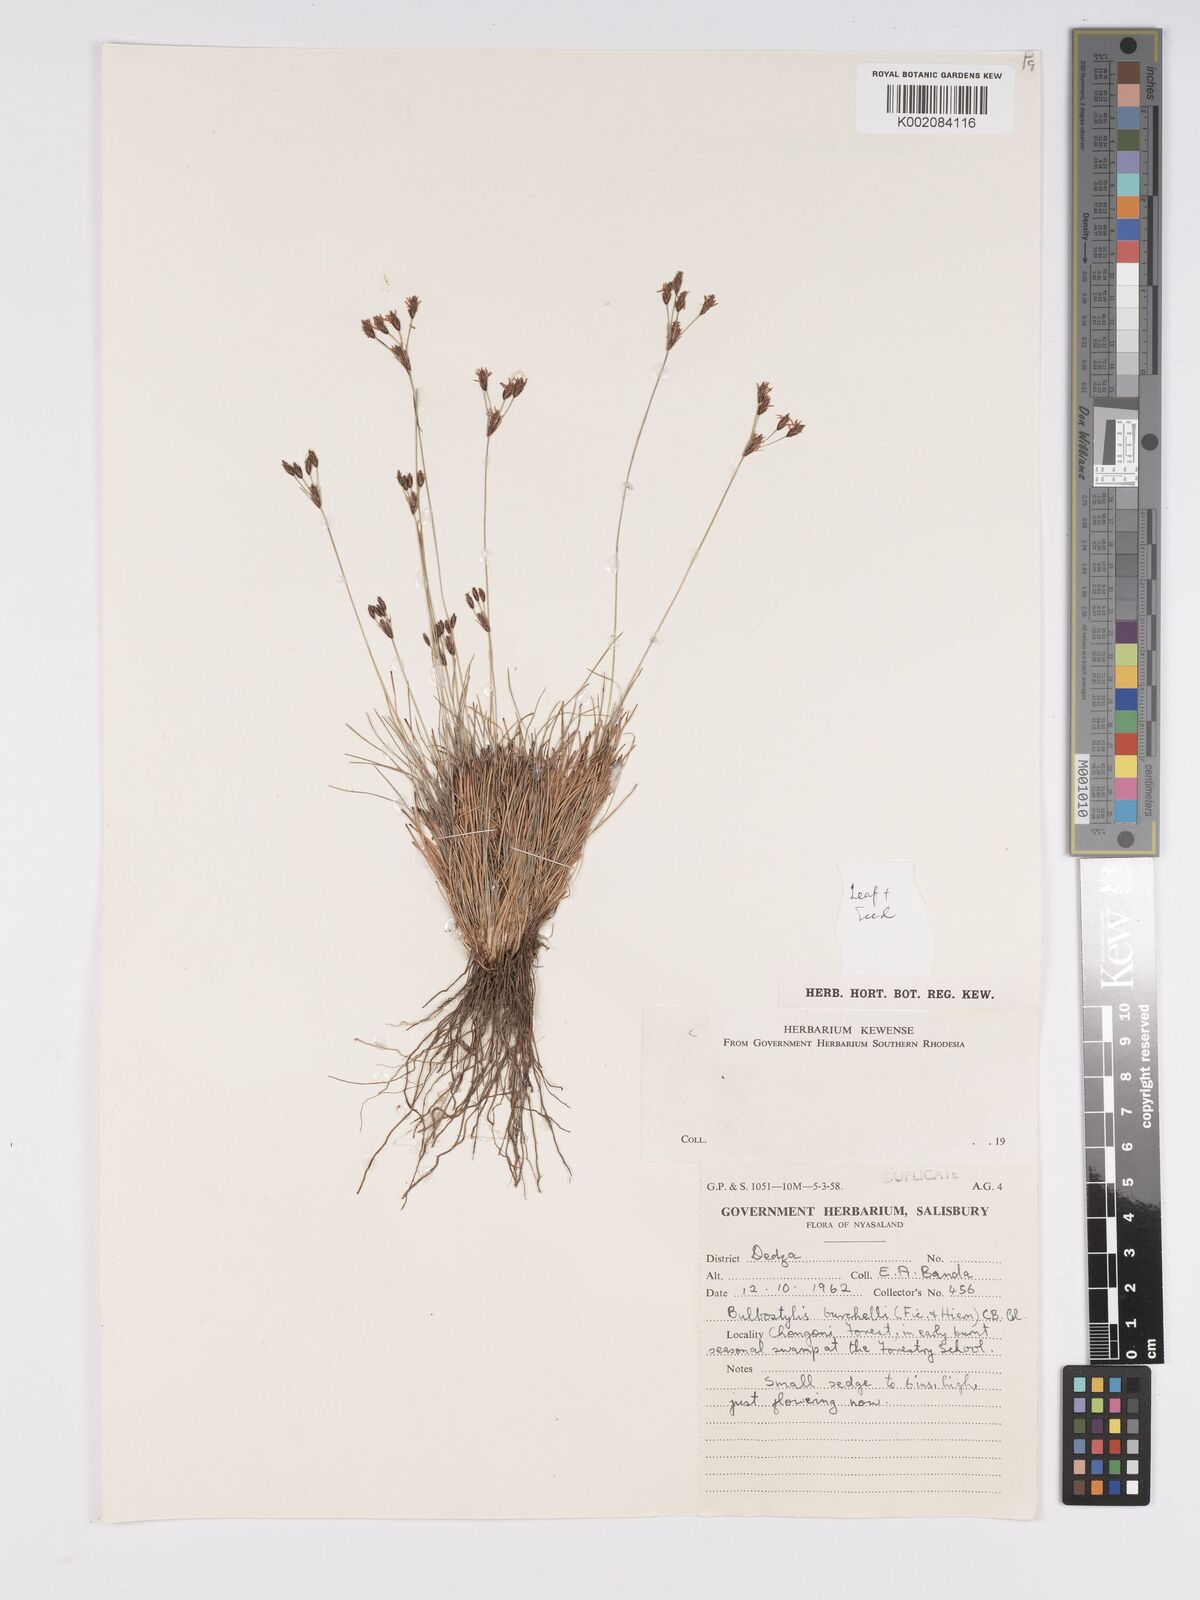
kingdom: Plantae
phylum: Tracheophyta
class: Liliopsida
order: Poales
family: Cyperaceae
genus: Bulbostylis
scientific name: Bulbostylis
